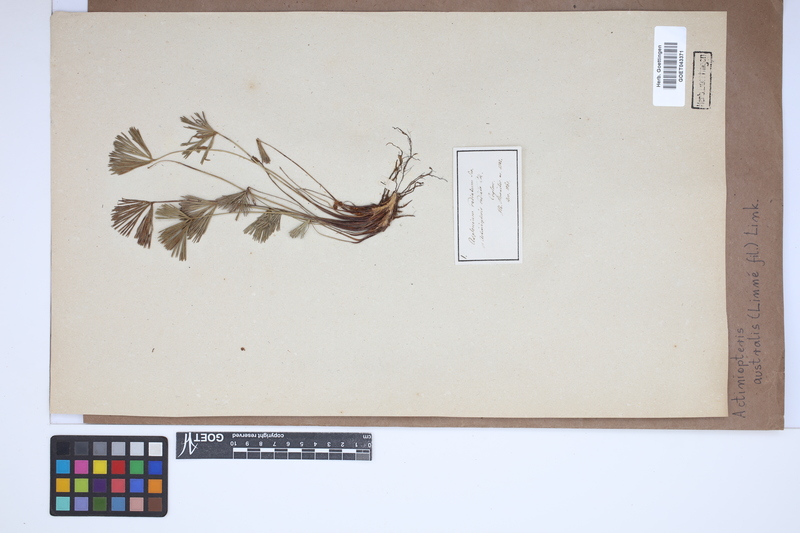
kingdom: Plantae
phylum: Tracheophyta
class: Polypodiopsida
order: Polypodiales
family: Pteridaceae
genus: Actiniopteris
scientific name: Actiniopteris australis
